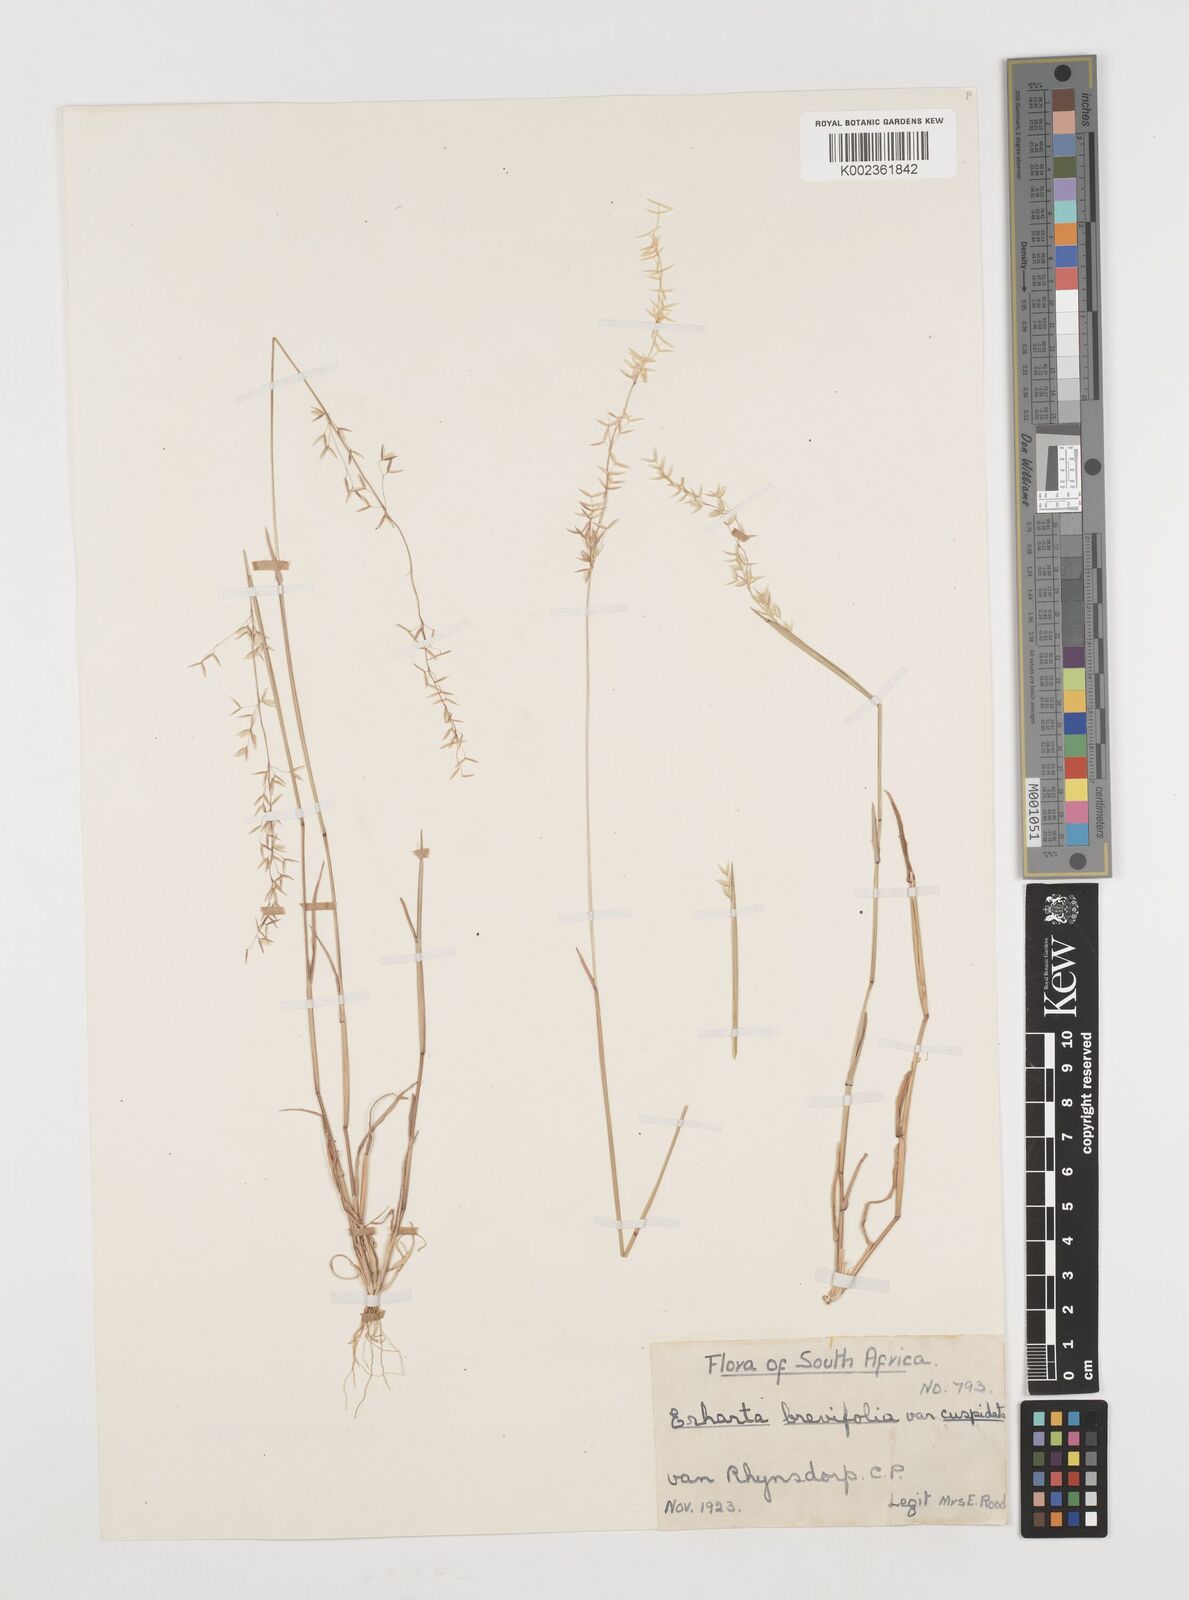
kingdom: Plantae
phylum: Tracheophyta
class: Liliopsida
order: Poales
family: Poaceae
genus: Ehrharta
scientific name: Ehrharta brevifolia
